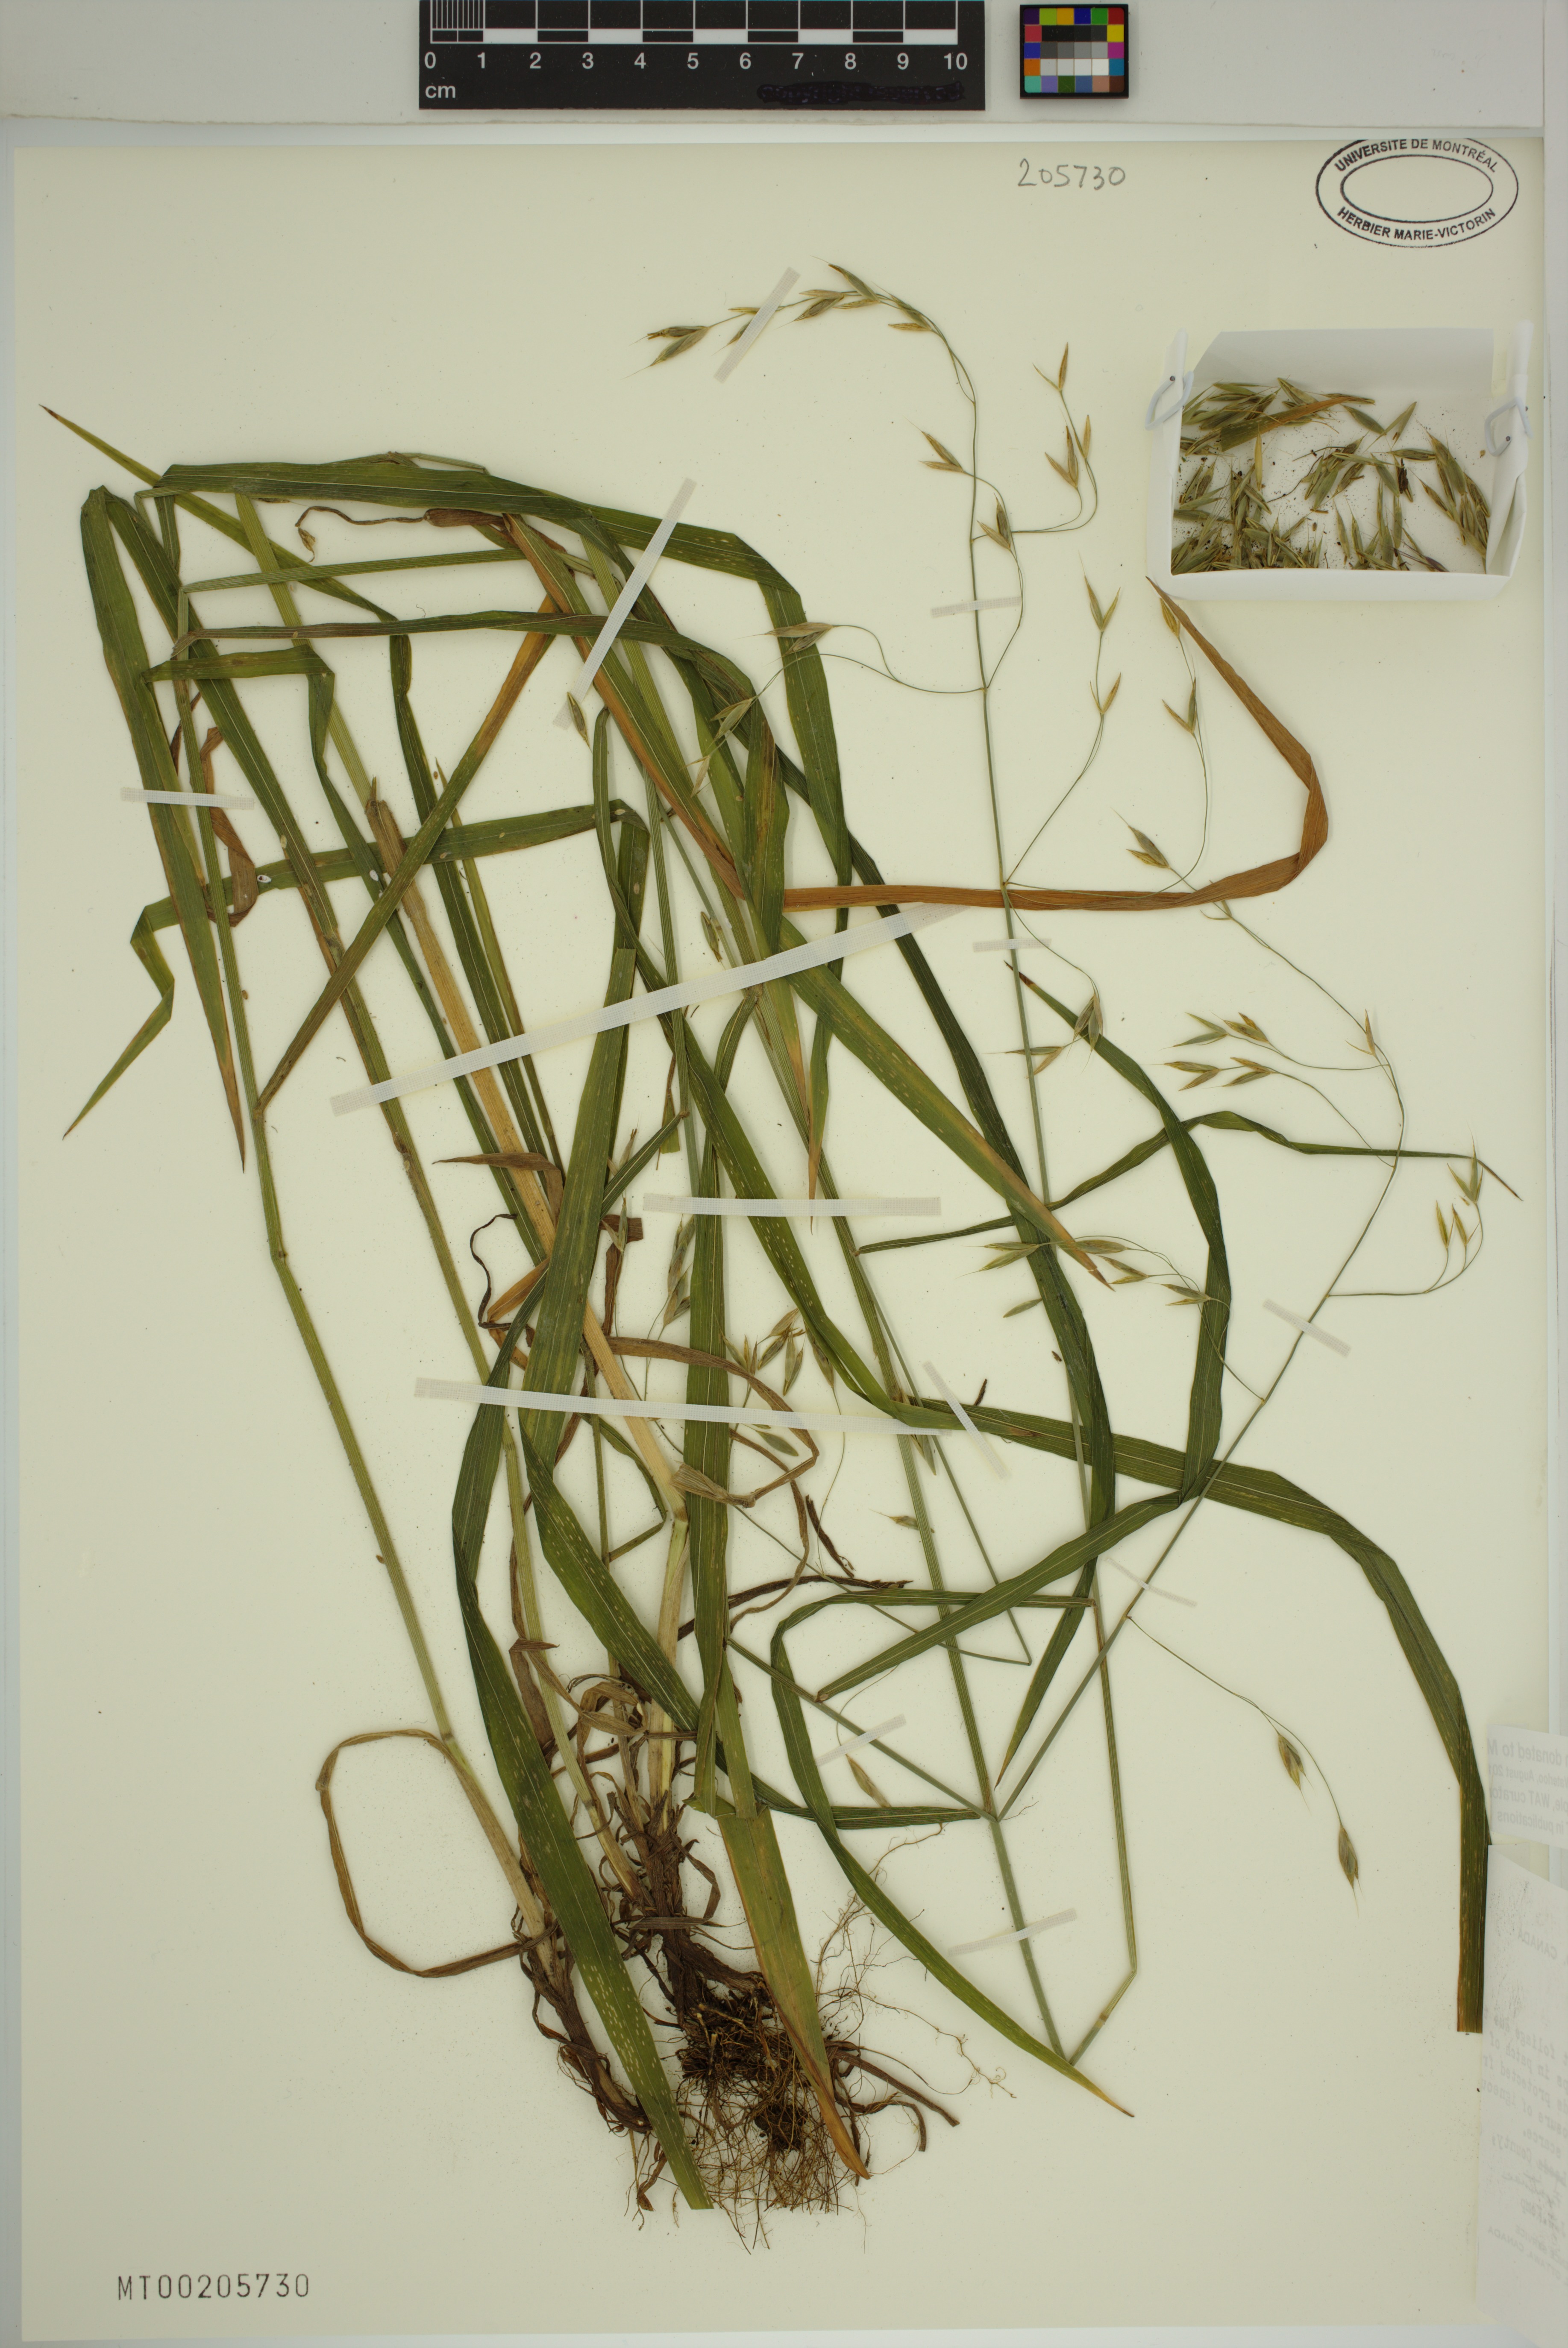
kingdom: Plantae
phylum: Tracheophyta
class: Liliopsida
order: Poales
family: Poaceae
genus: Bromus
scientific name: Bromus pubescens
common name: Hairy wood brome grass
